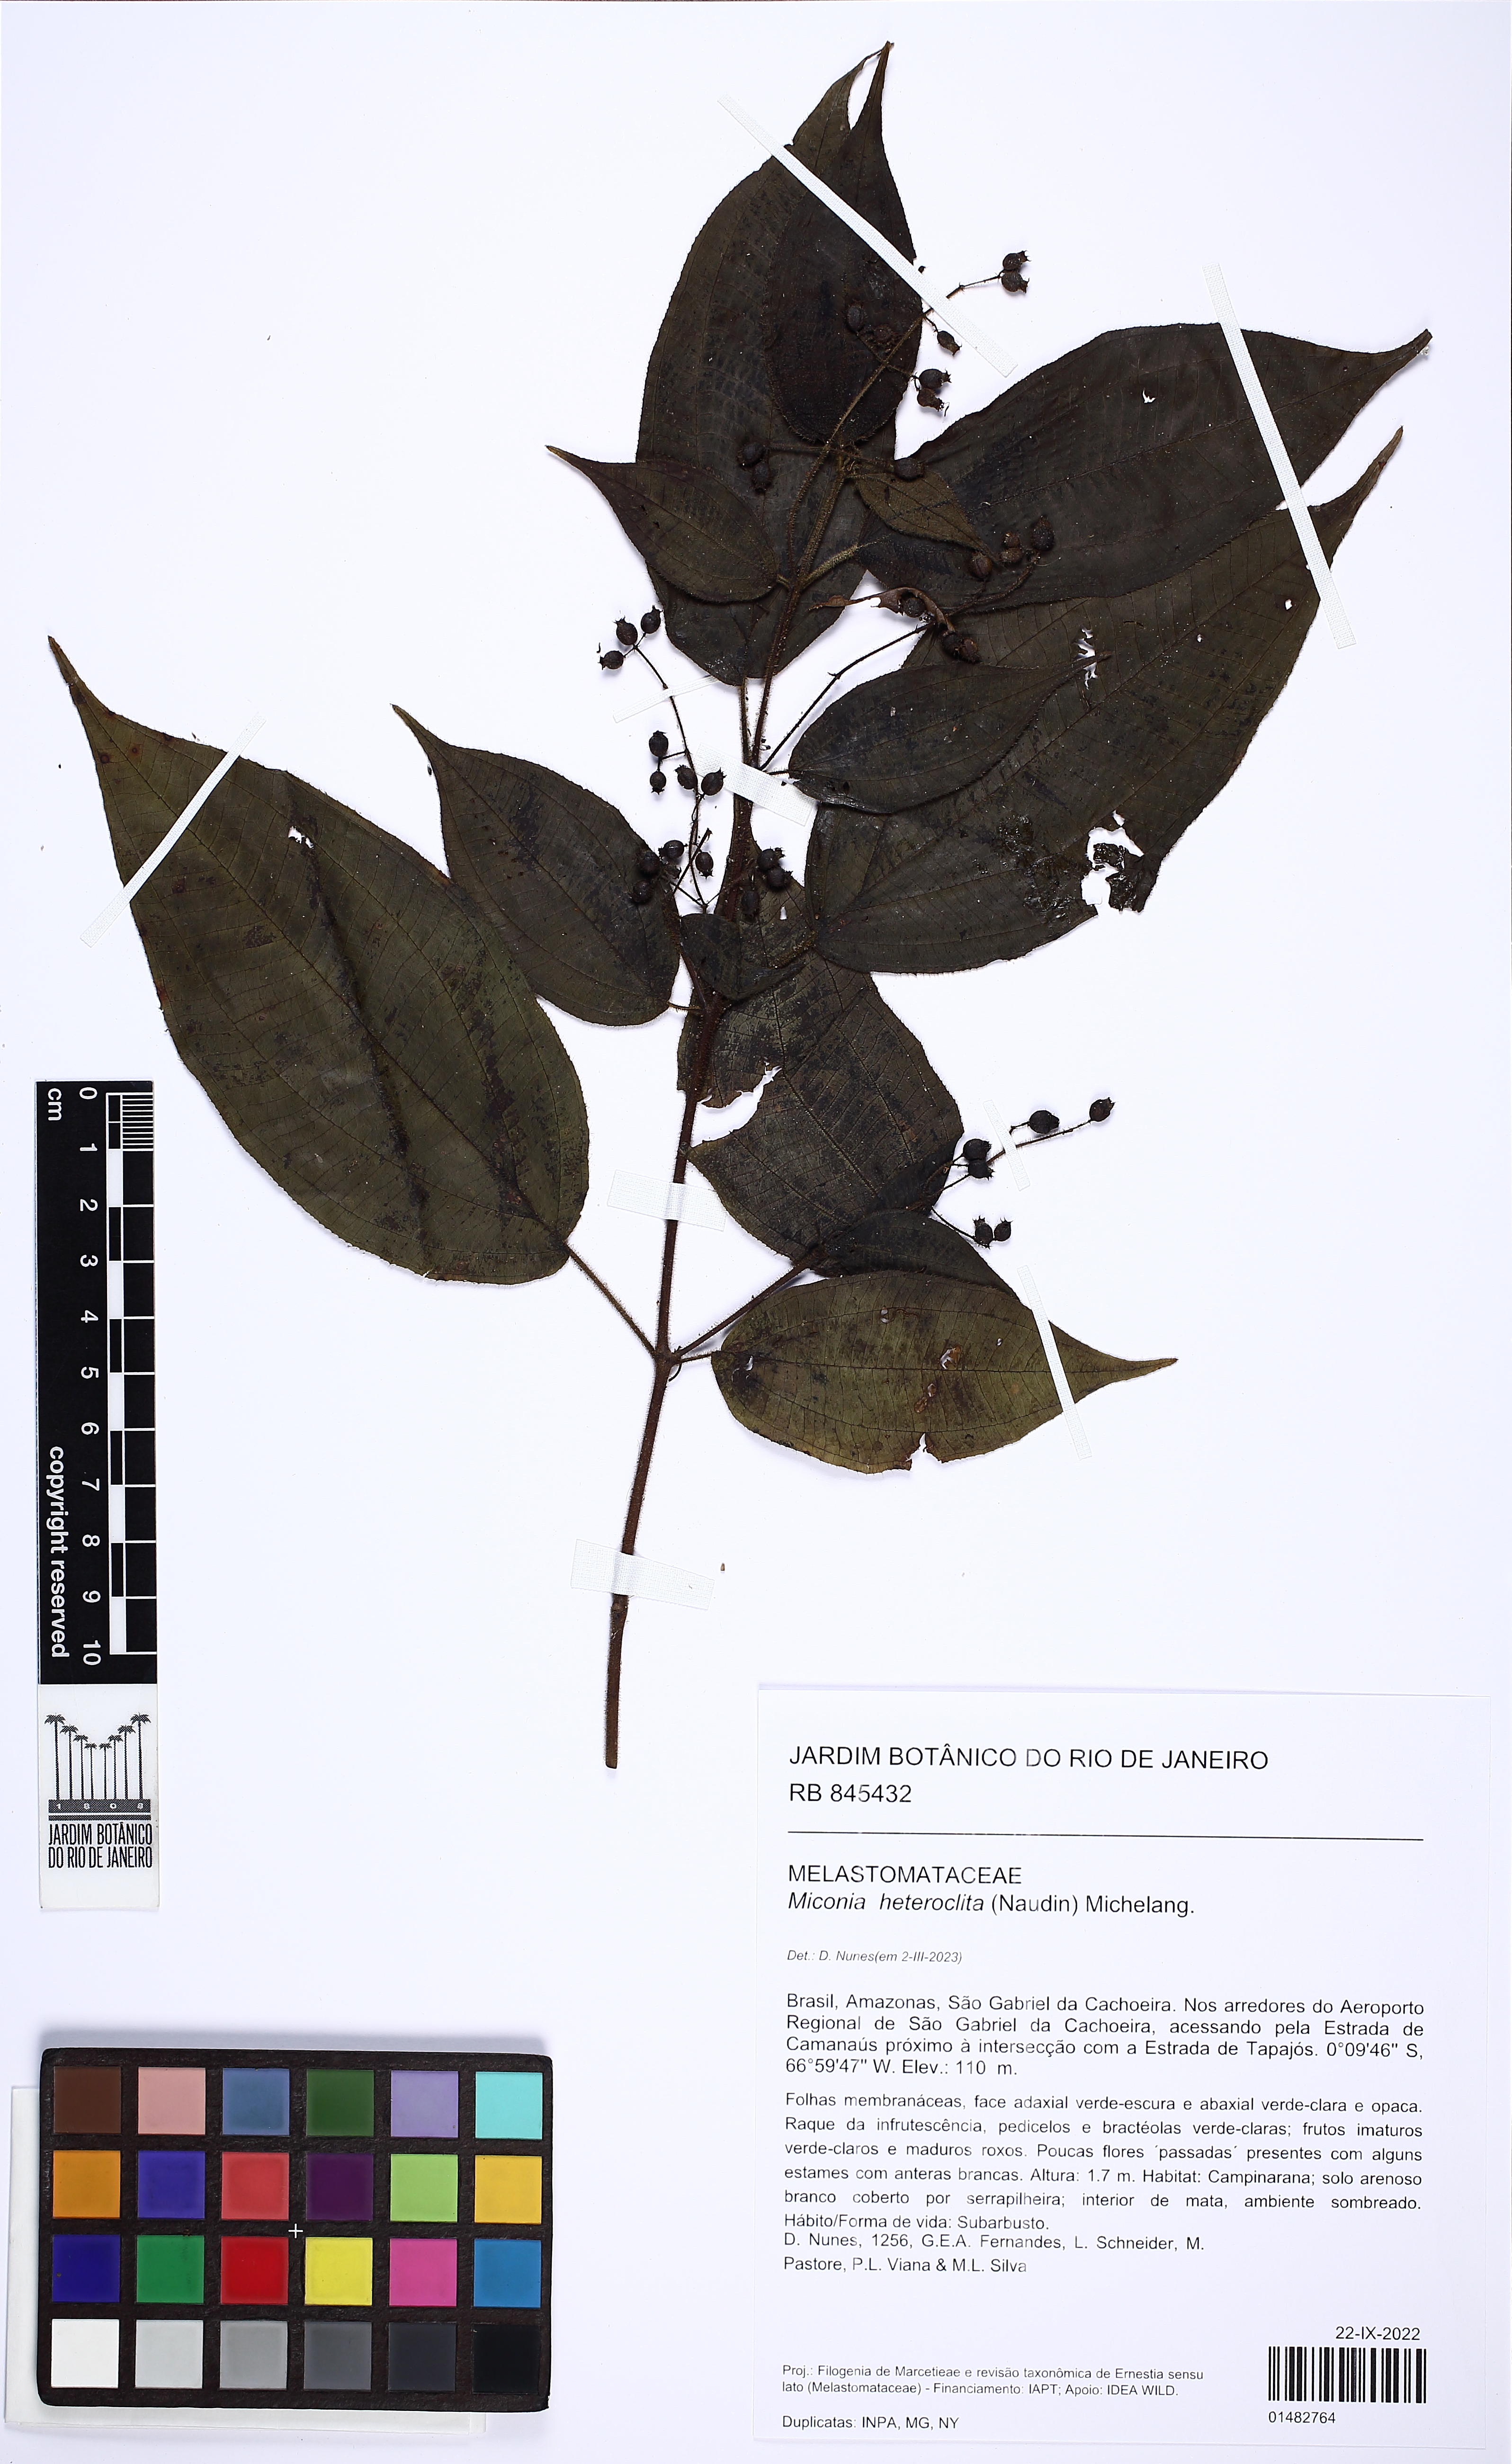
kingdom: Plantae
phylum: Tracheophyta
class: Magnoliopsida
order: Myrtales
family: Melastomataceae
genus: Miconia
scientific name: Miconia heteroclita
